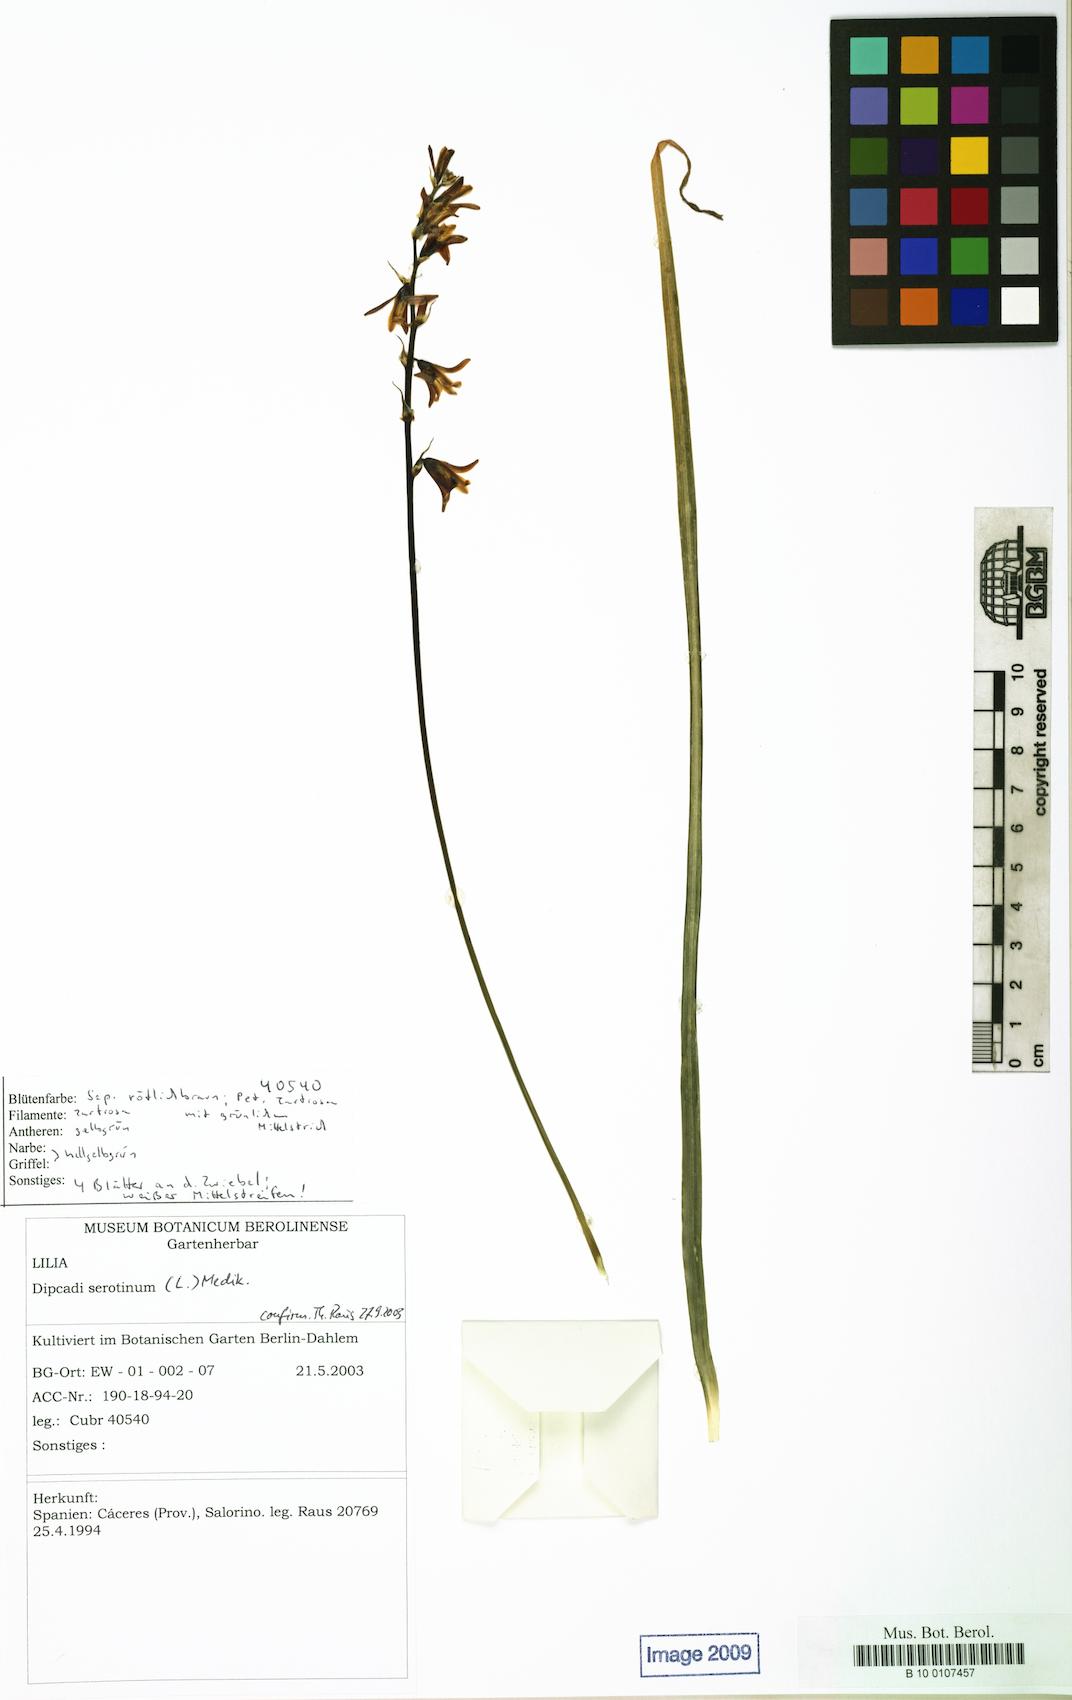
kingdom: Plantae
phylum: Tracheophyta
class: Liliopsida
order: Asparagales
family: Asparagaceae
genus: Dipcadi
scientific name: Dipcadi serotinum
